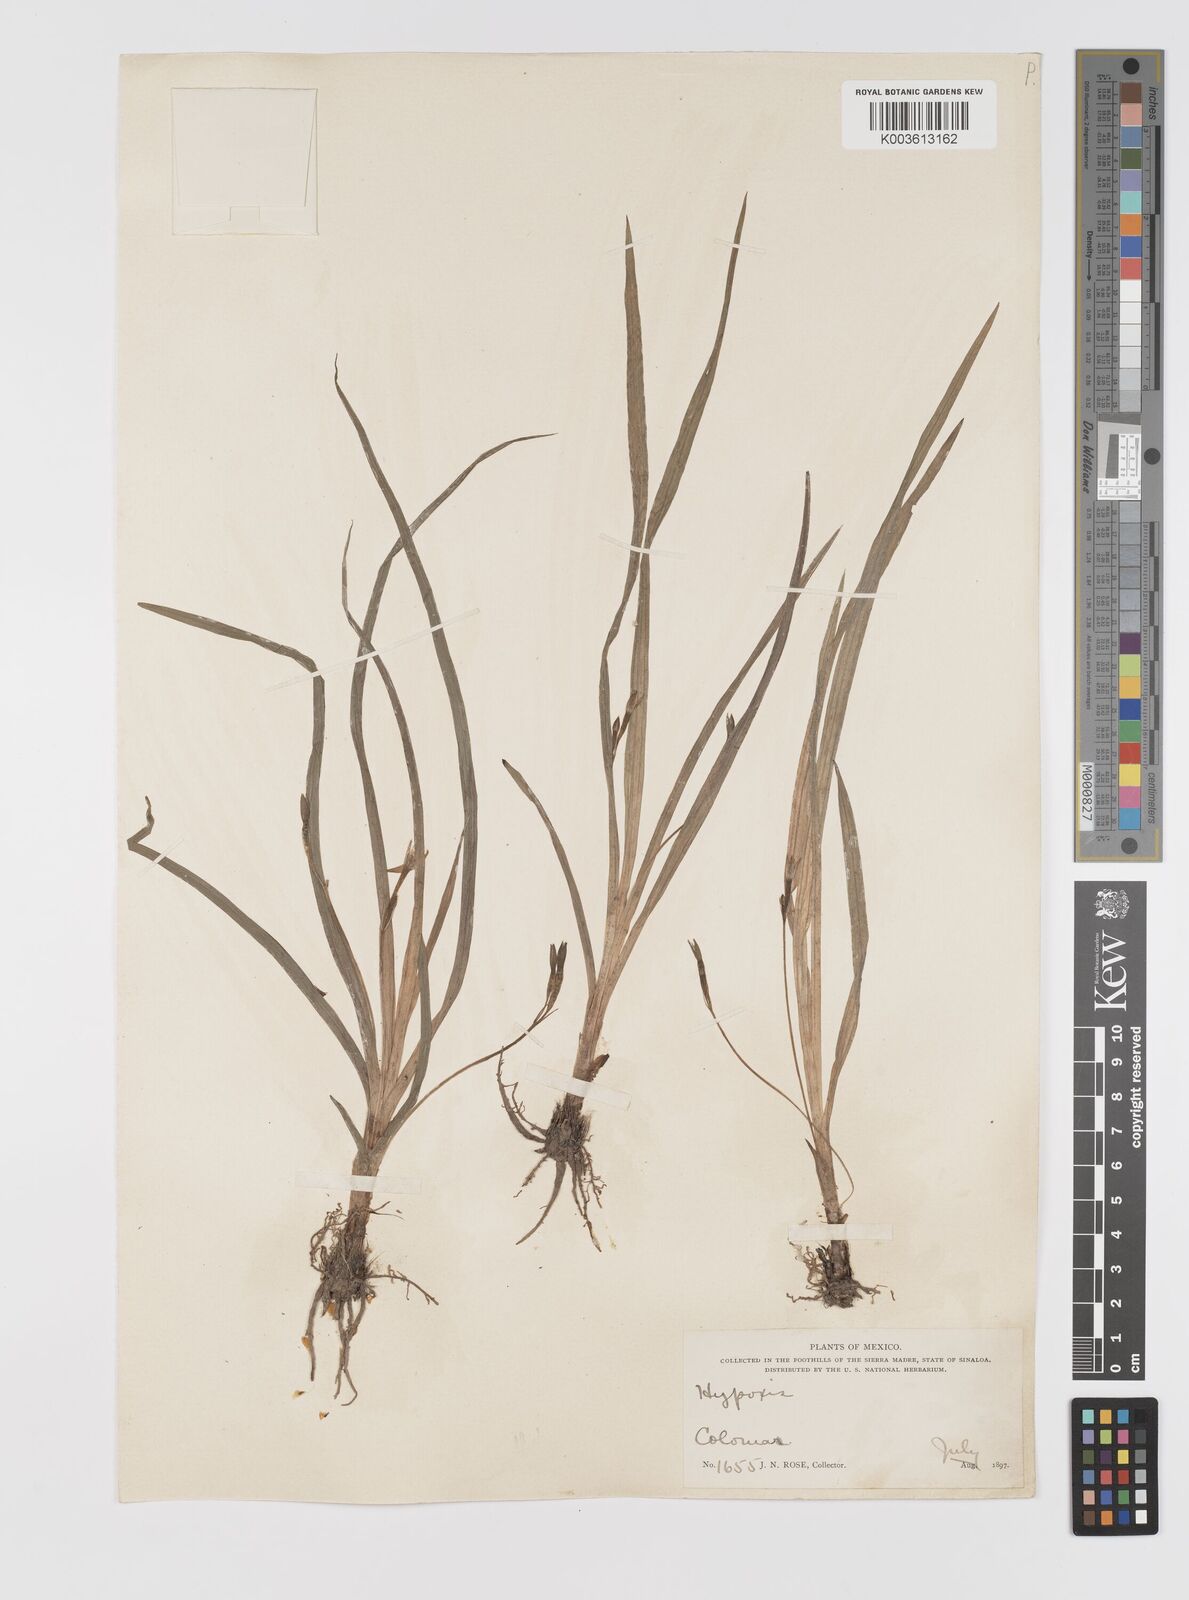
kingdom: Plantae
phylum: Tracheophyta
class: Liliopsida
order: Asparagales
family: Hypoxidaceae
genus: Hypoxis
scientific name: Hypoxis decumbens
